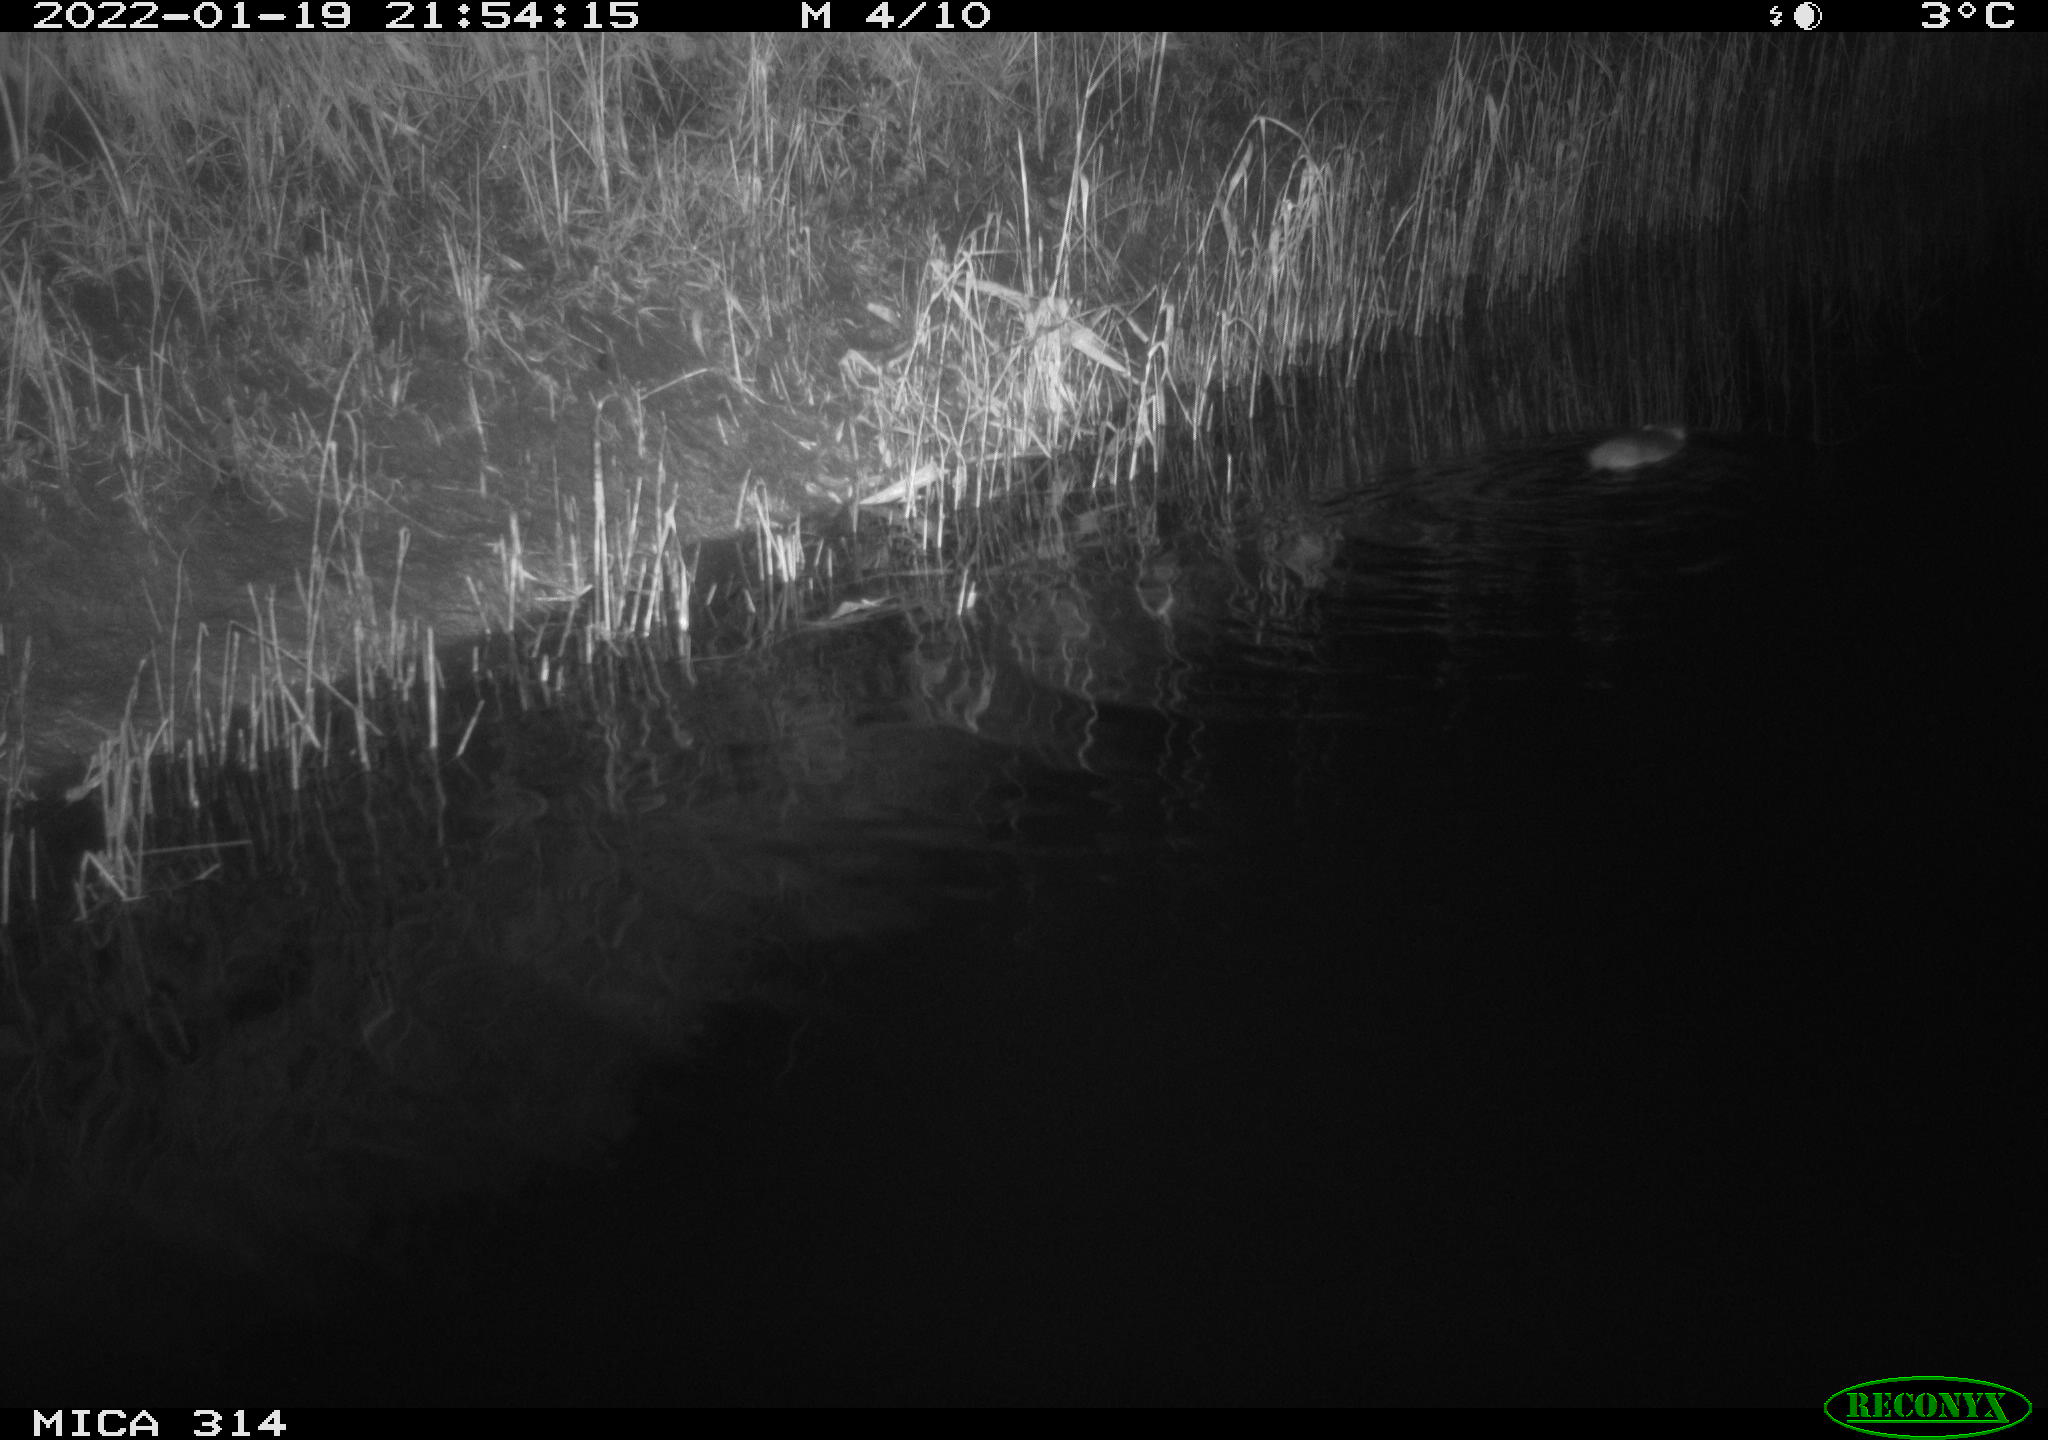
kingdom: Animalia
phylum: Chordata
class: Mammalia
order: Rodentia
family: Muridae
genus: Rattus
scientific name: Rattus norvegicus
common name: Brown rat
